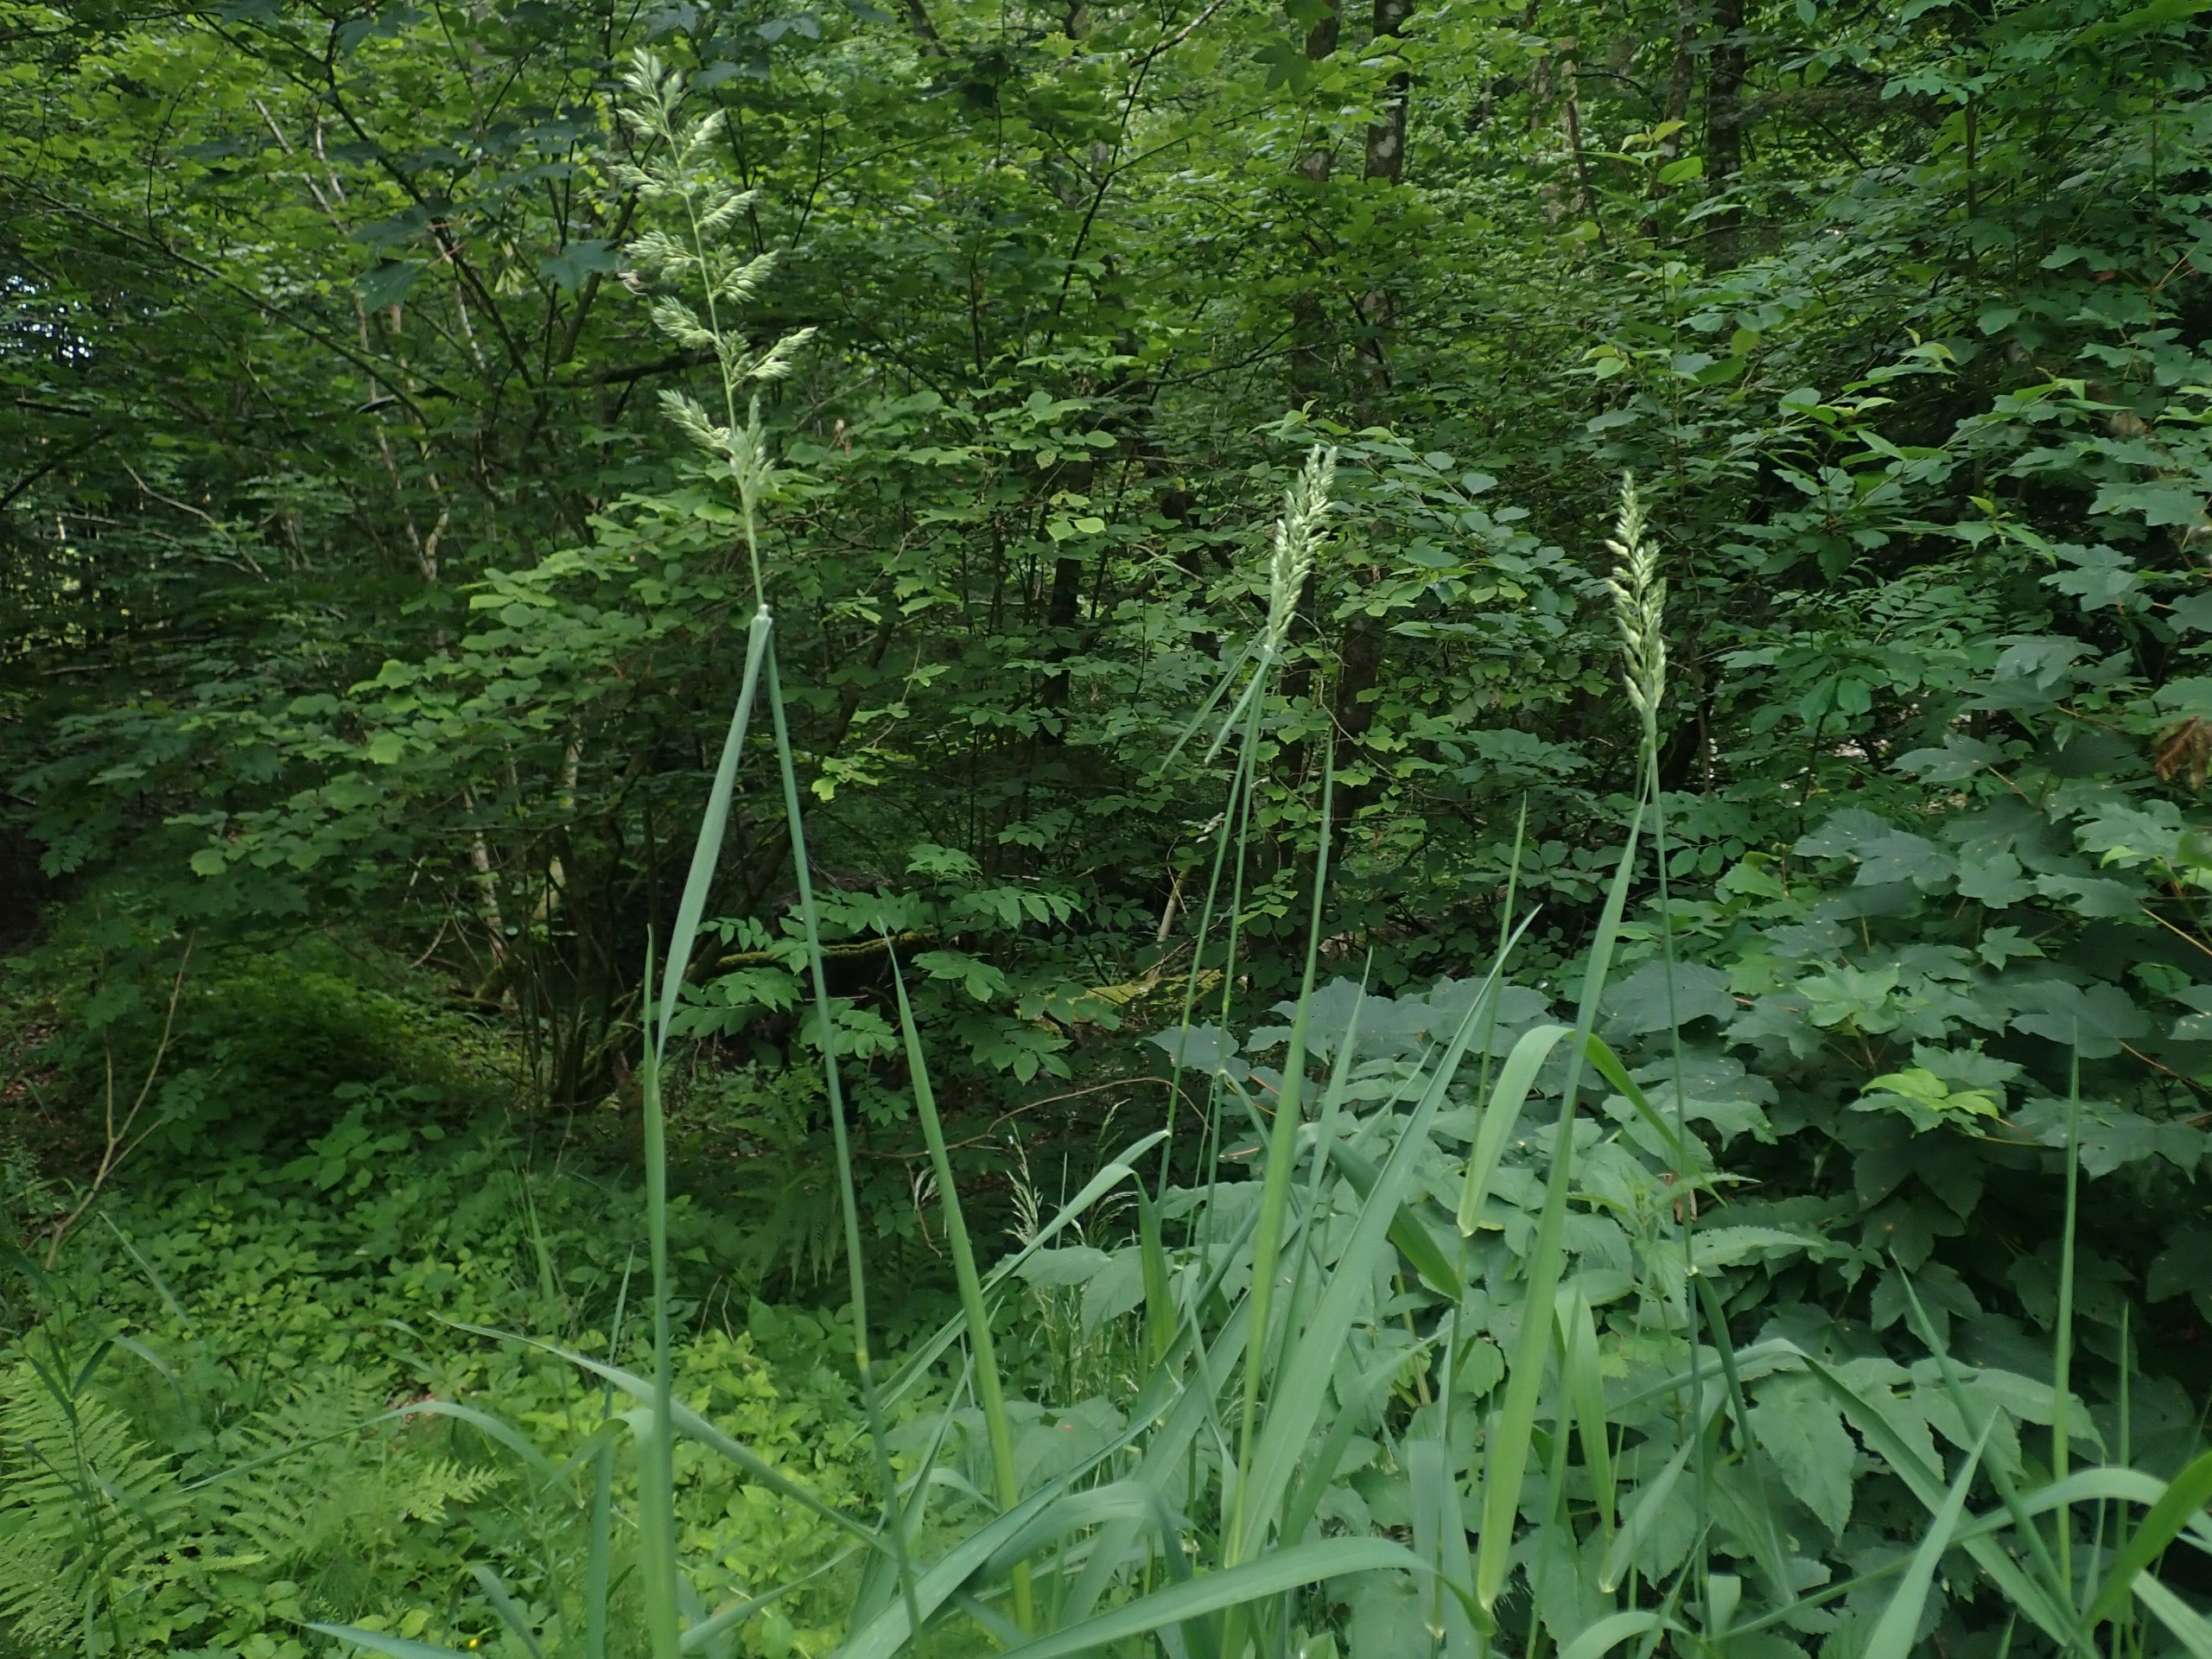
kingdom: Plantae
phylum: Tracheophyta
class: Liliopsida
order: Poales
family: Poaceae
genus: Phalaris
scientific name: Phalaris arundinacea
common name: Rørgræs
